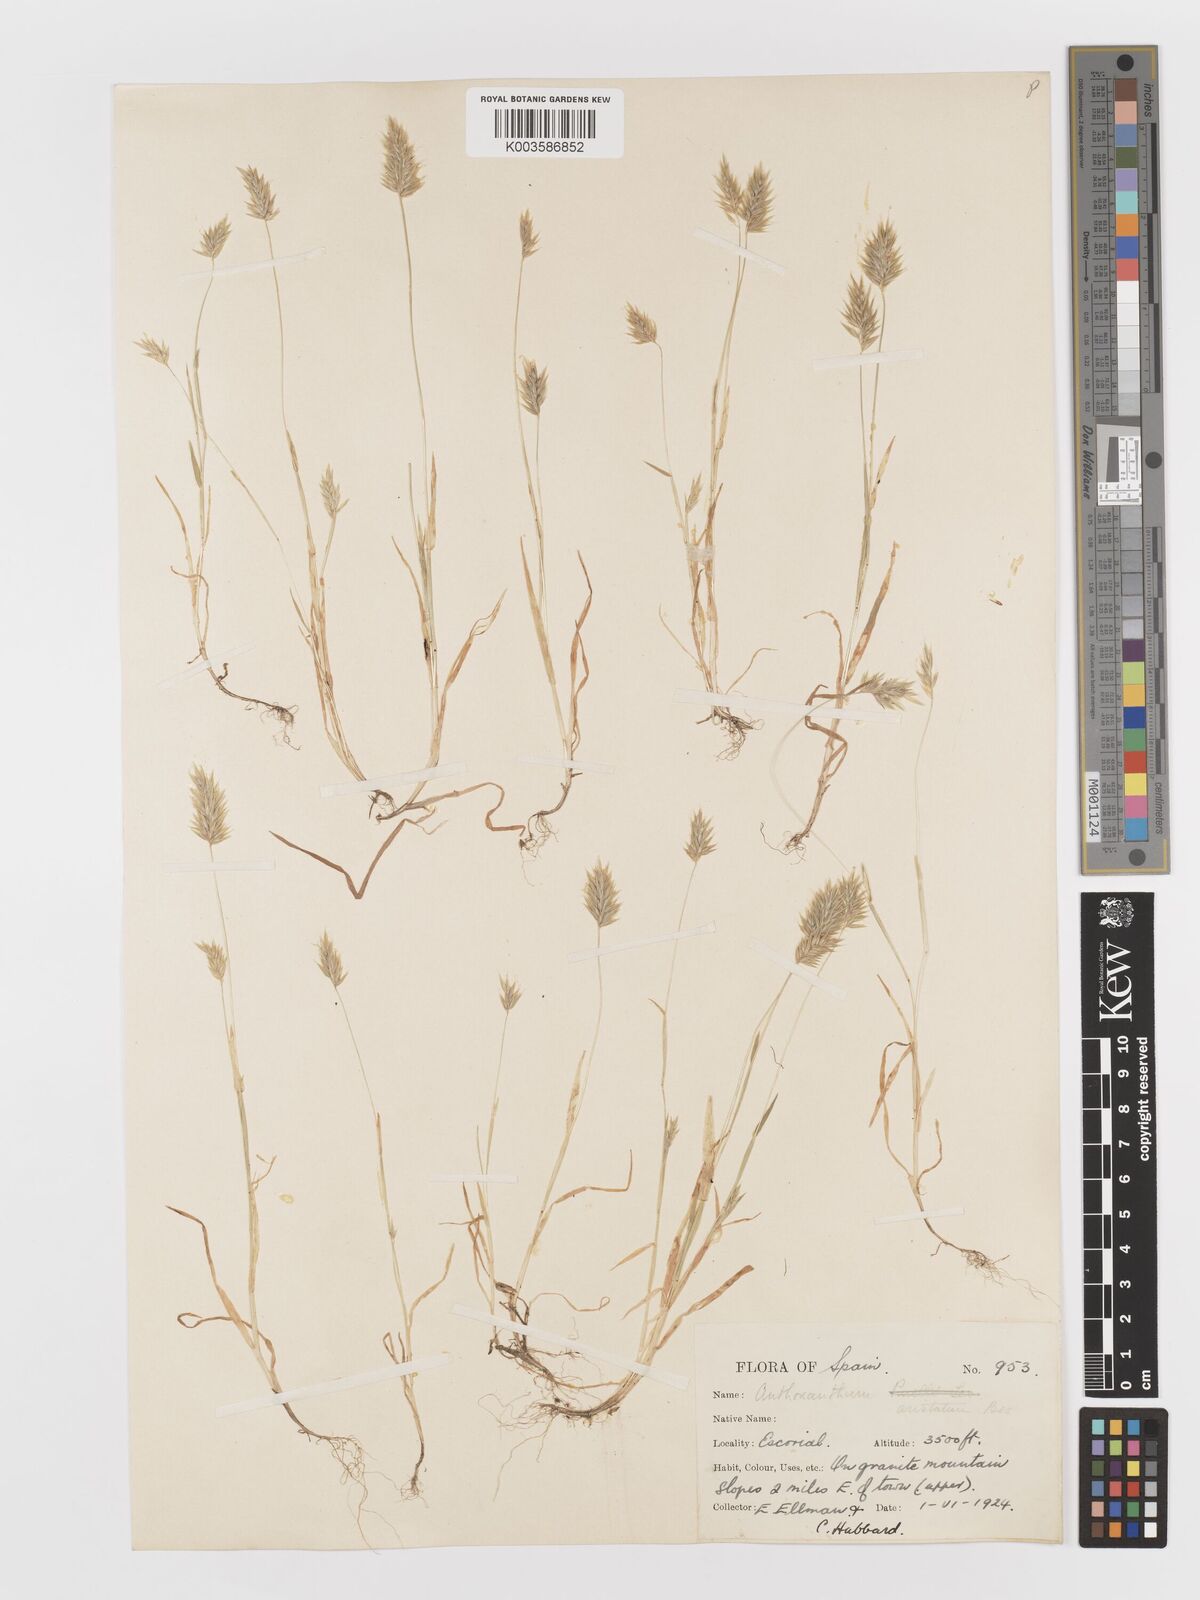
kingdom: Plantae
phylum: Tracheophyta
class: Liliopsida
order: Poales
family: Poaceae
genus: Anthoxanthum
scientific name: Anthoxanthum
